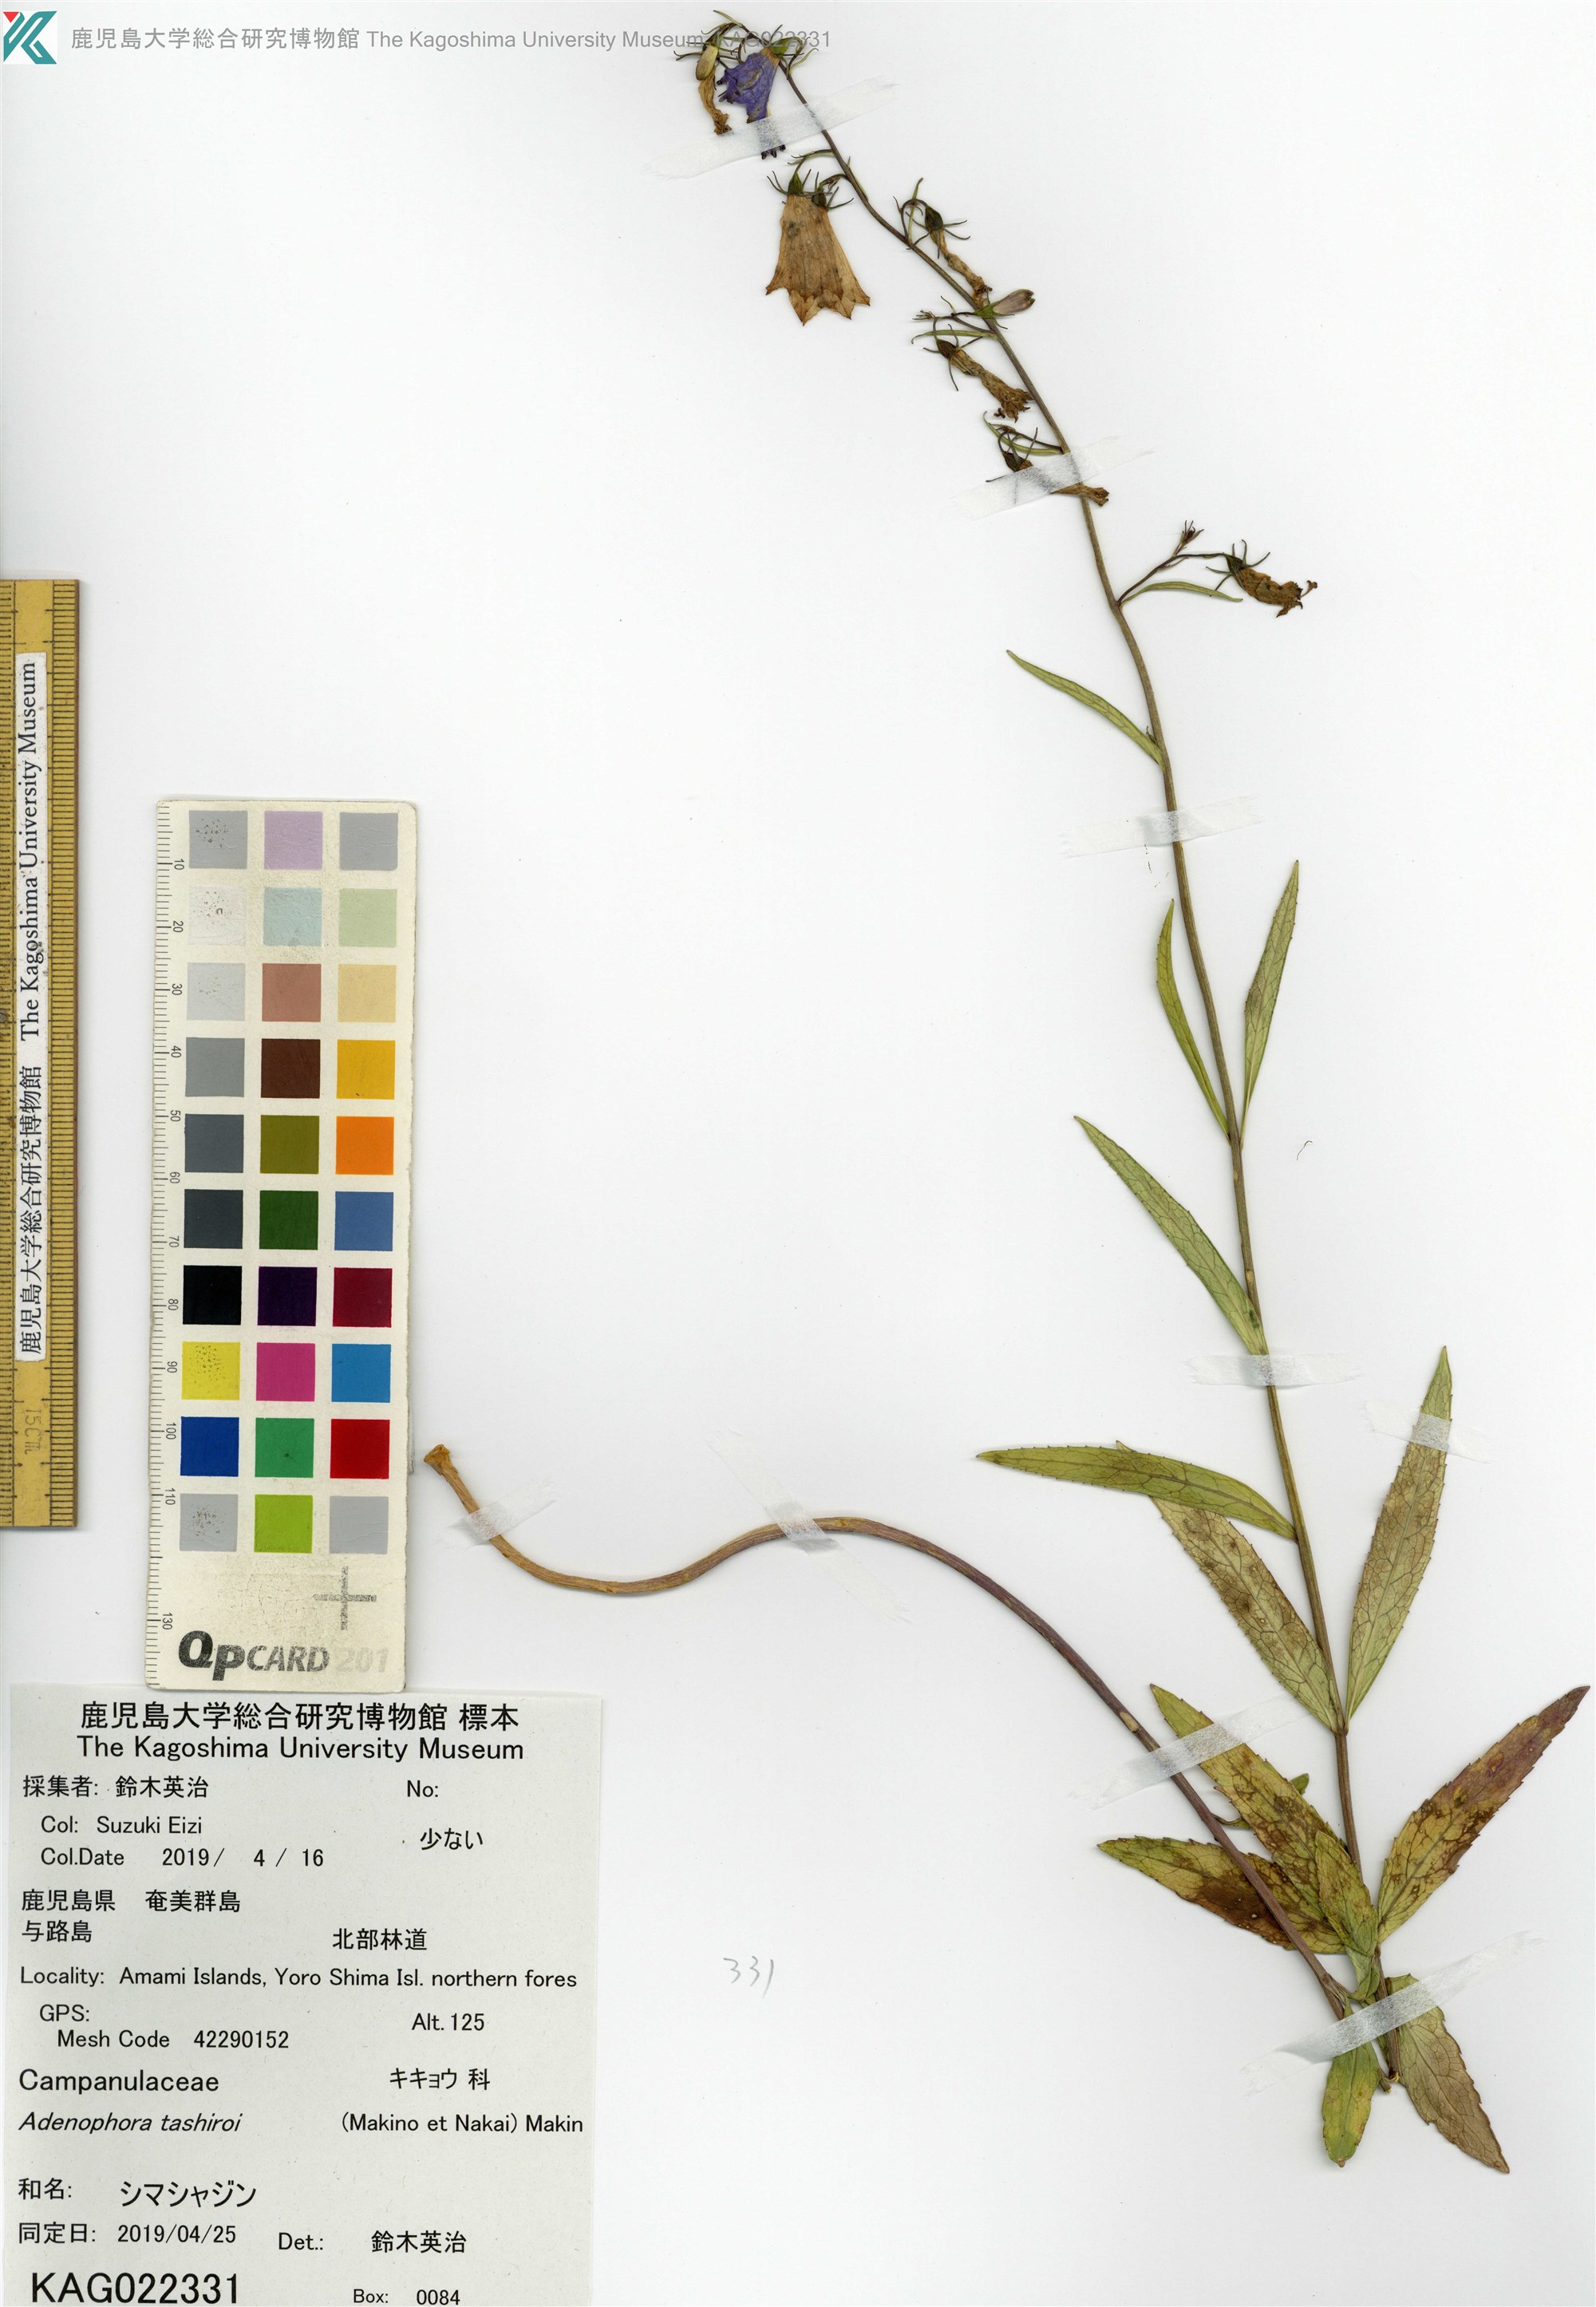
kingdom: Plantae
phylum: Tracheophyta
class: Magnoliopsida
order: Asterales
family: Campanulaceae
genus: Adenophora
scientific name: Adenophora triphylla
